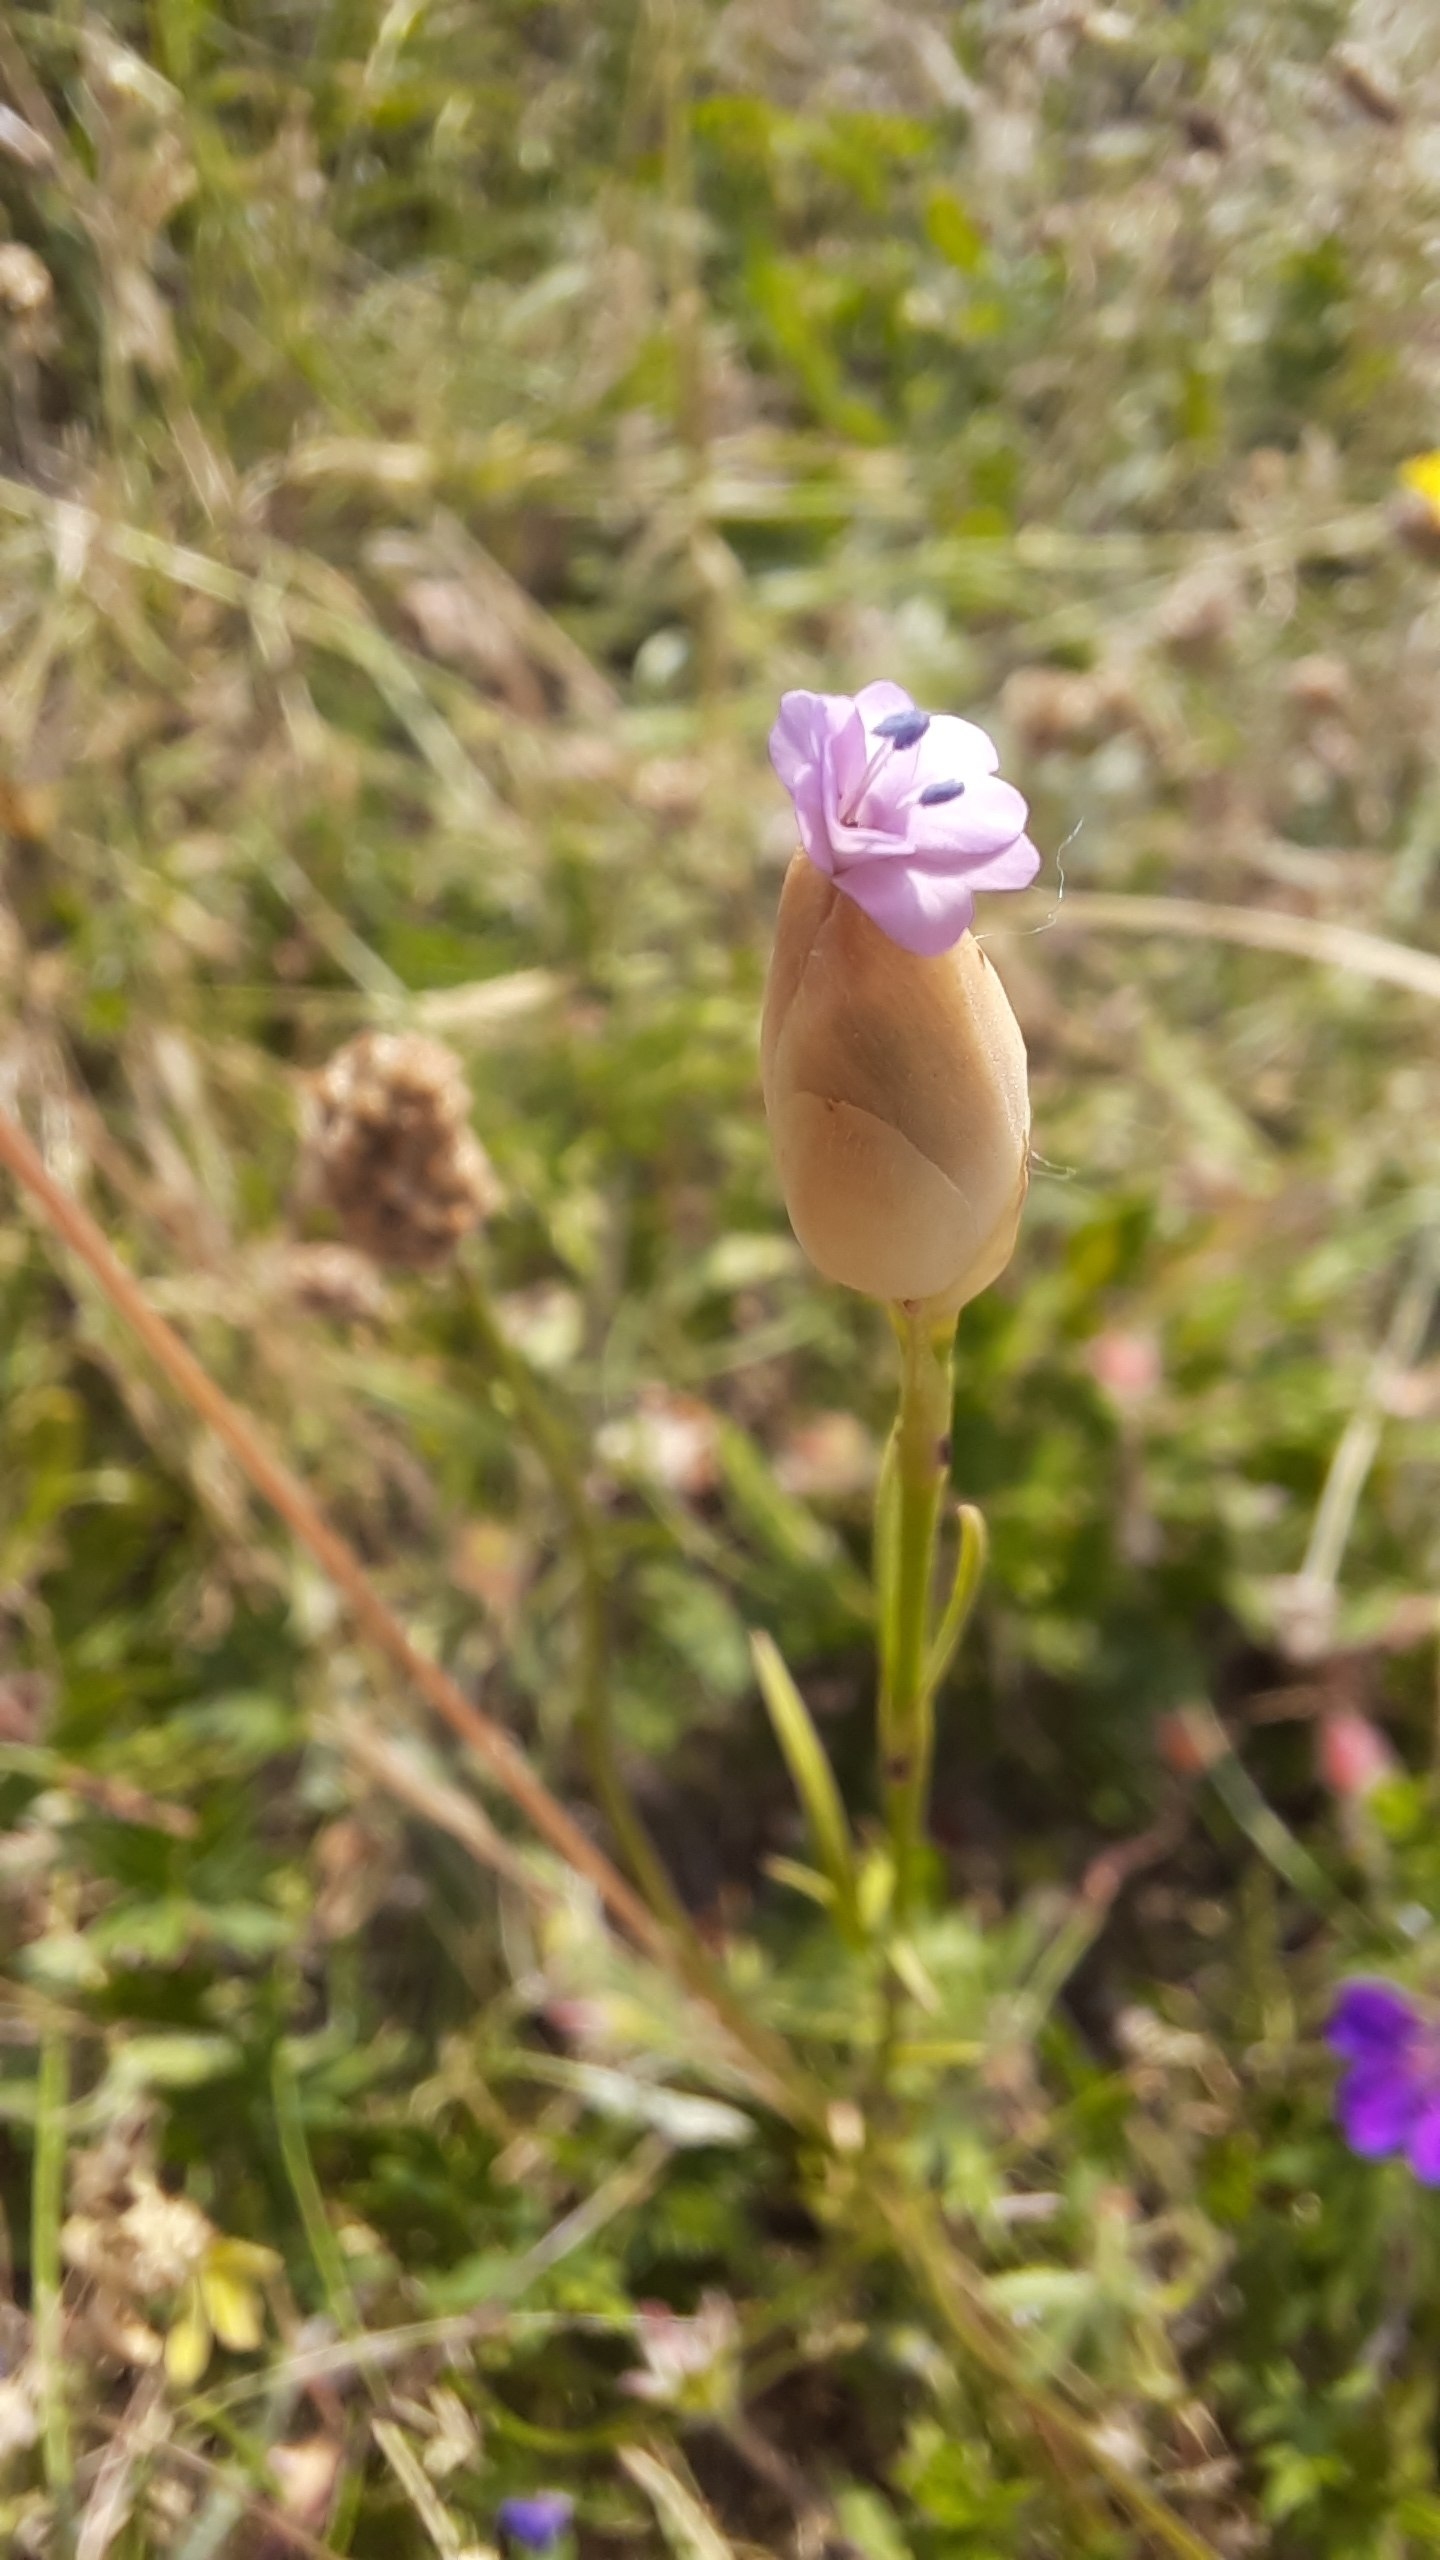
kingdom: Plantae
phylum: Tracheophyta
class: Magnoliopsida
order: Caryophyllales
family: Caryophyllaceae
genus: Petrorhagia
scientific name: Petrorhagia prolifera
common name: Knopnellike
